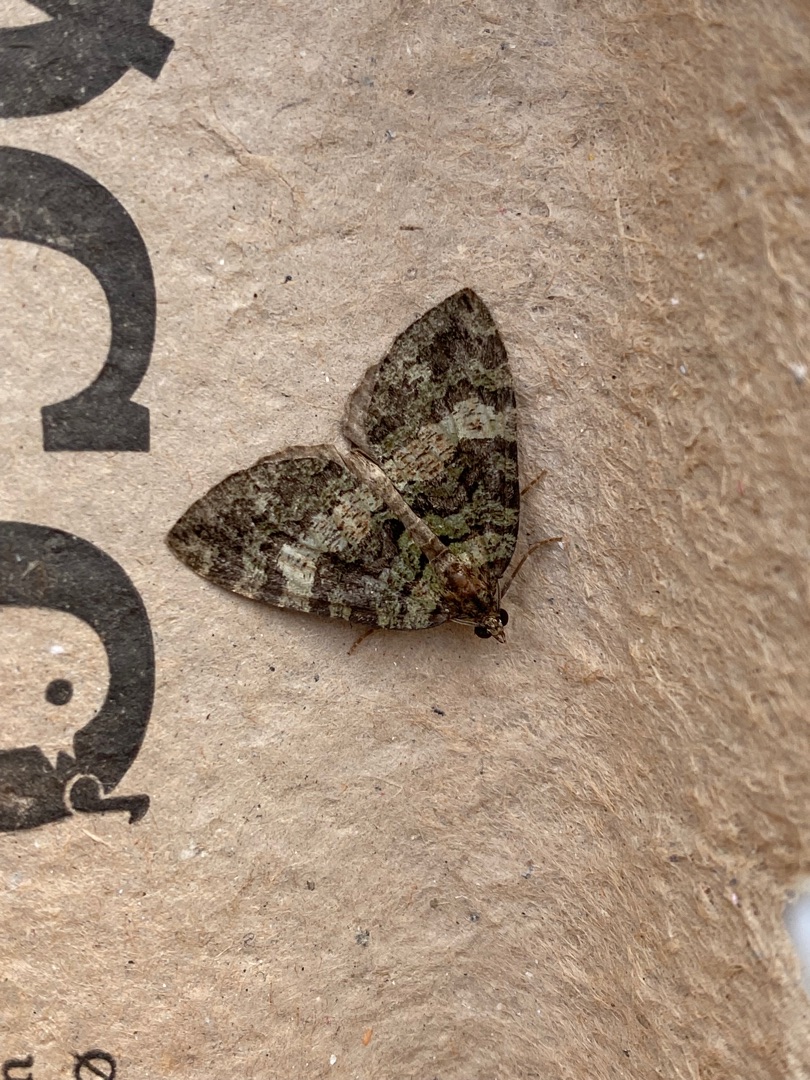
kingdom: Animalia
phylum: Arthropoda
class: Insecta
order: Lepidoptera
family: Geometridae
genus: Hydriomena
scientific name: Hydriomena furcata
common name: Vatret bladmåler
